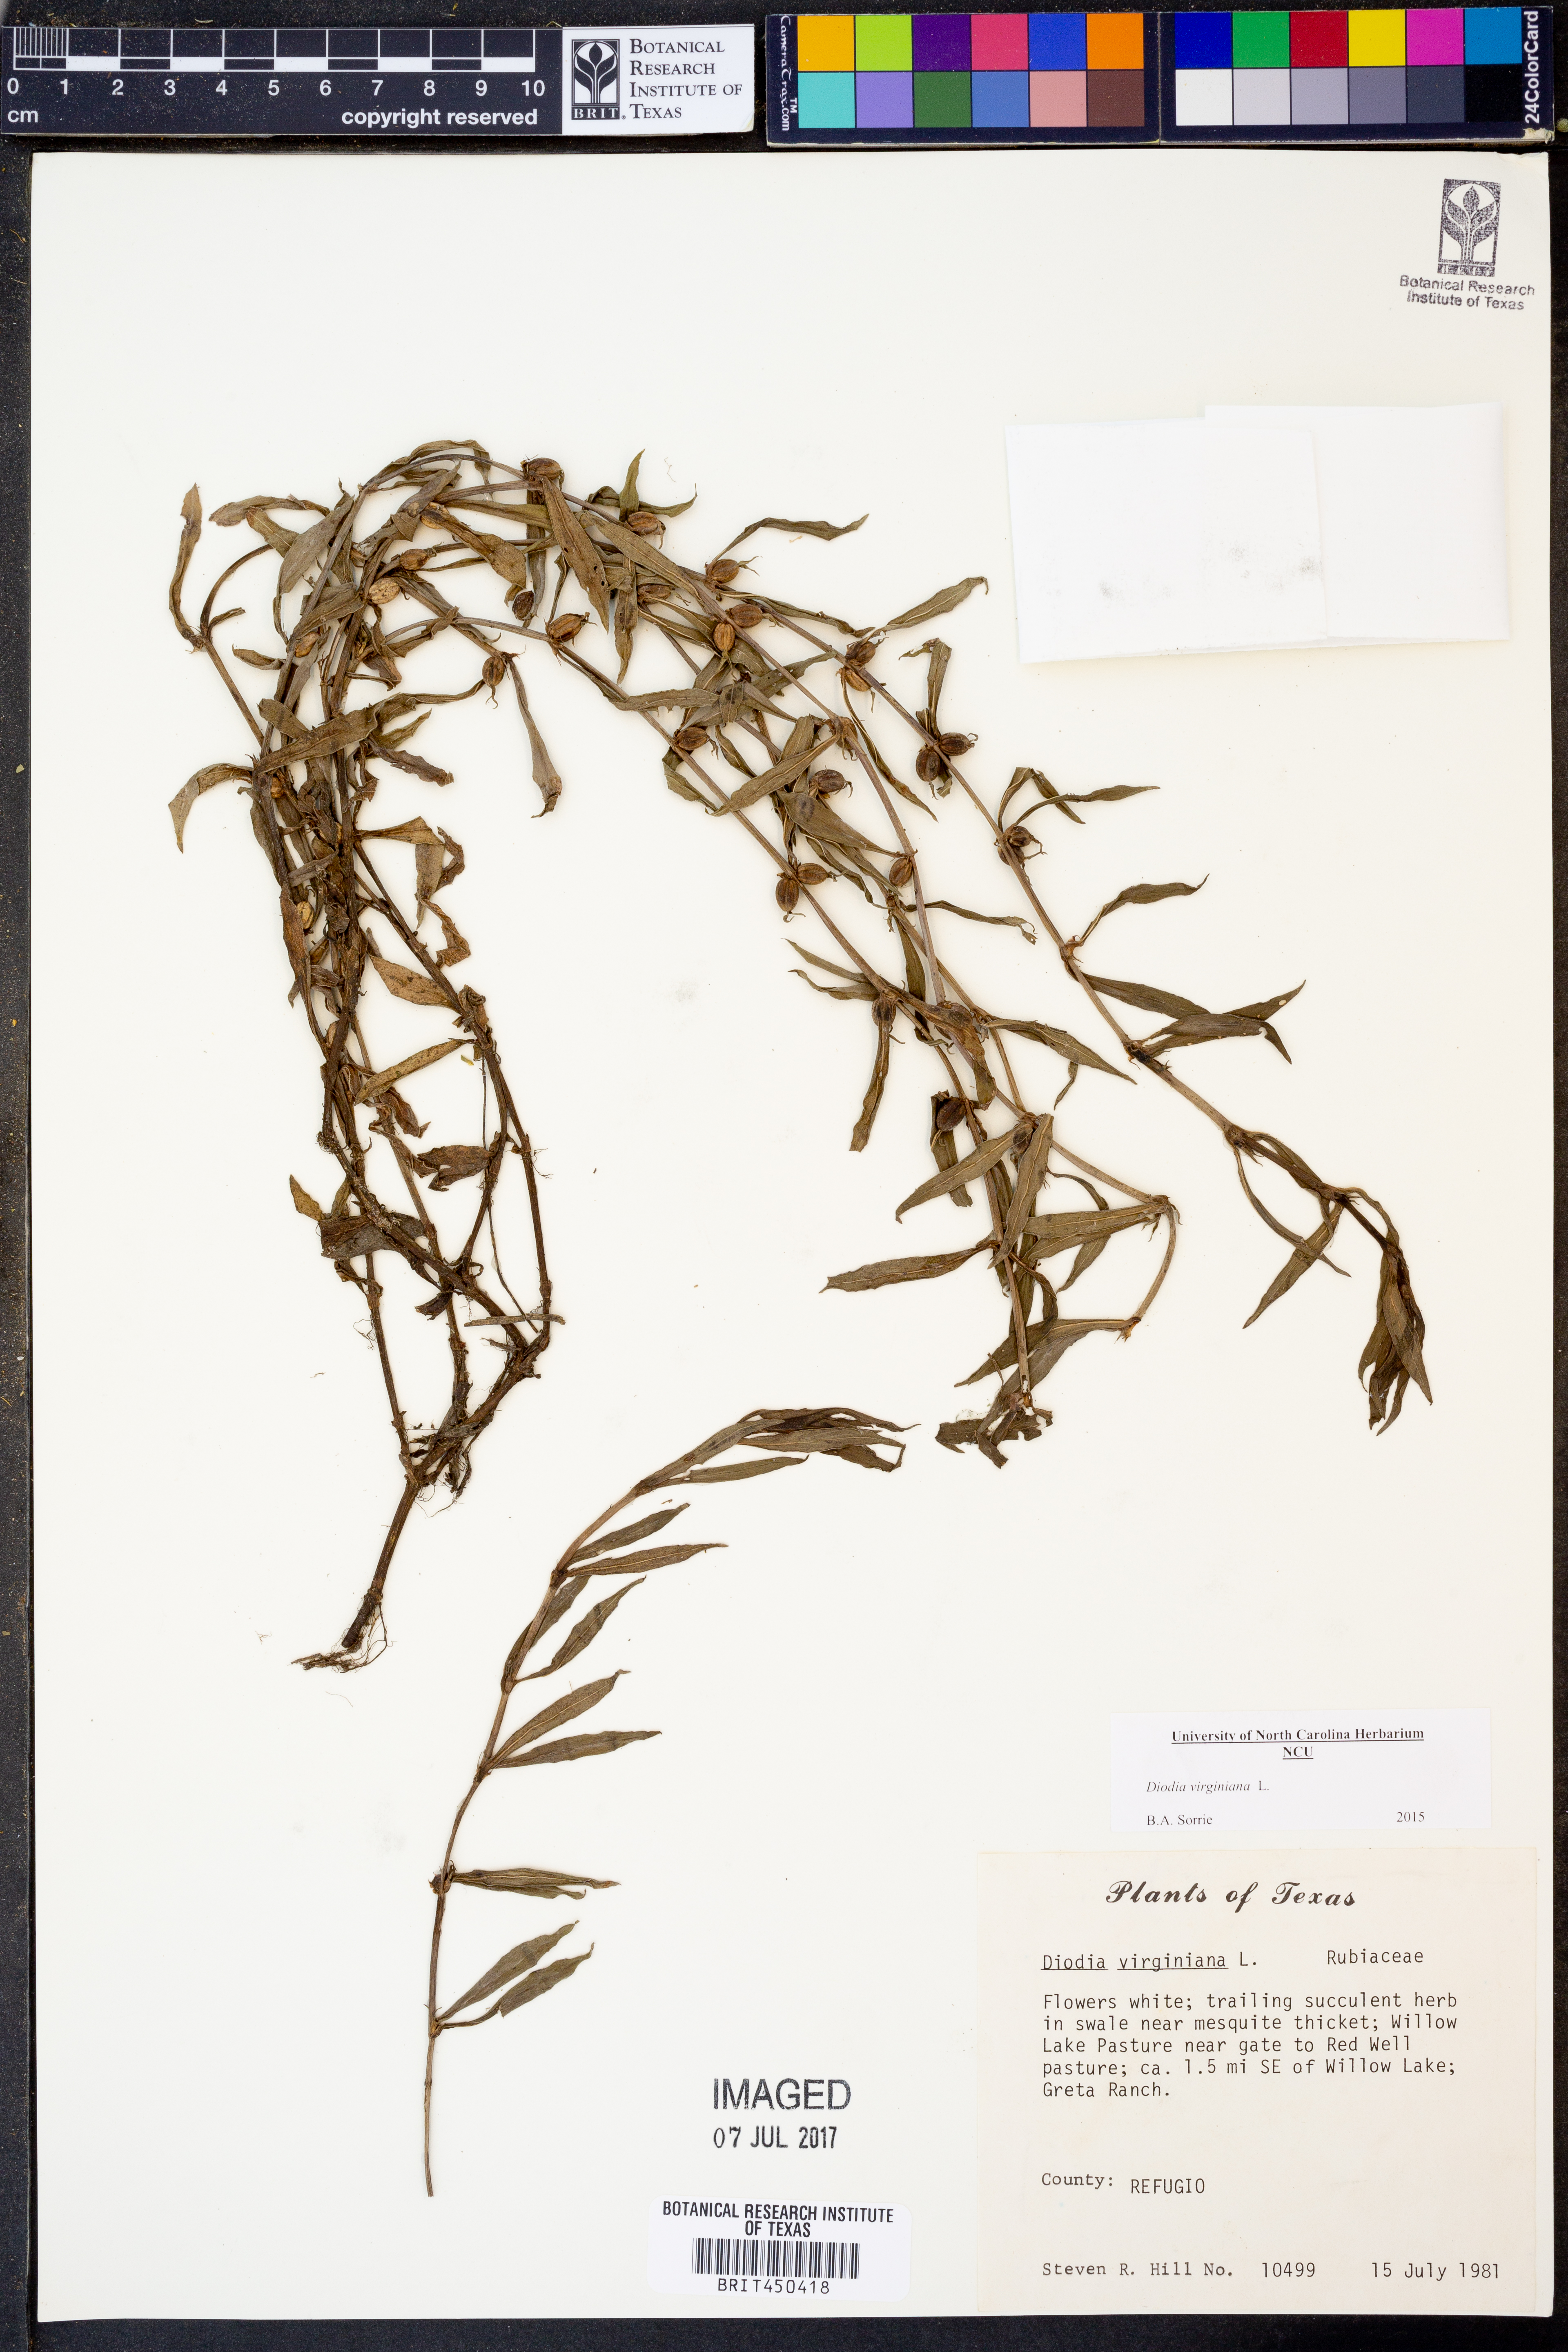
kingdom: Plantae
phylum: Tracheophyta
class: Magnoliopsida
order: Gentianales
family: Rubiaceae
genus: Diodia
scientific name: Diodia virginiana
